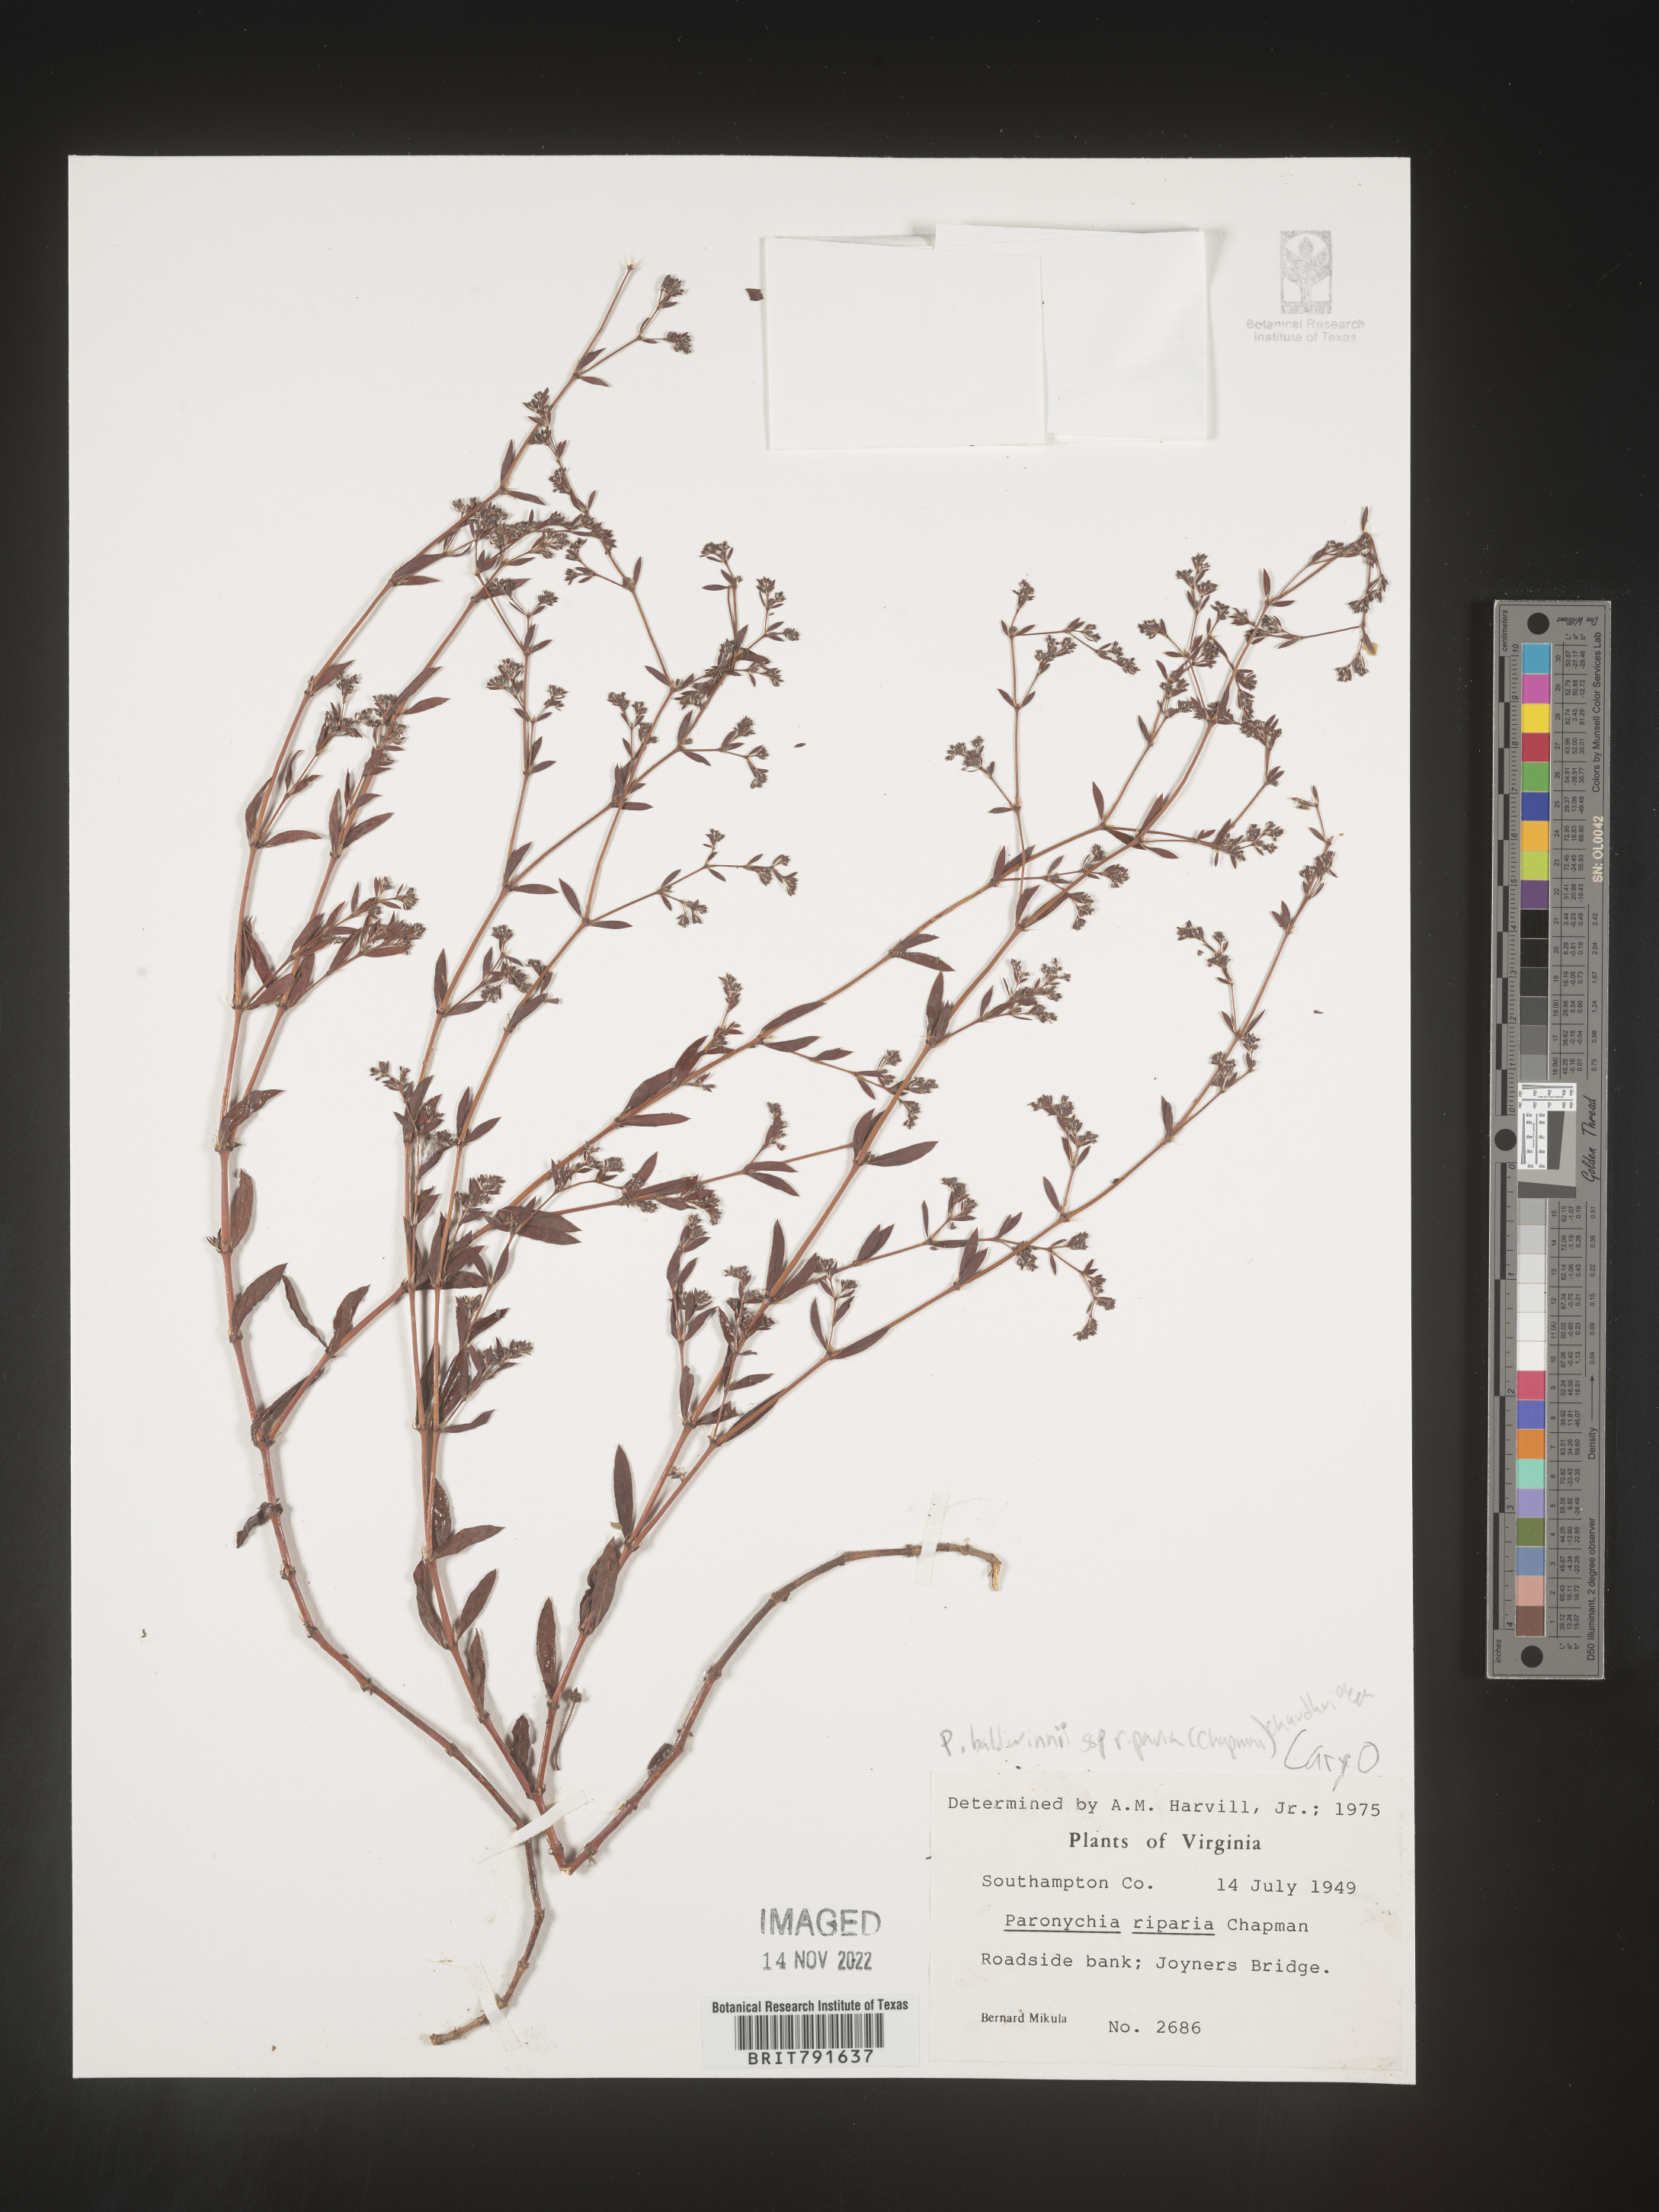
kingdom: Plantae
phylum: Tracheophyta
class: Magnoliopsida
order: Caryophyllales
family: Caryophyllaceae
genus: Paronychia
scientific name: Paronychia baldwinii
